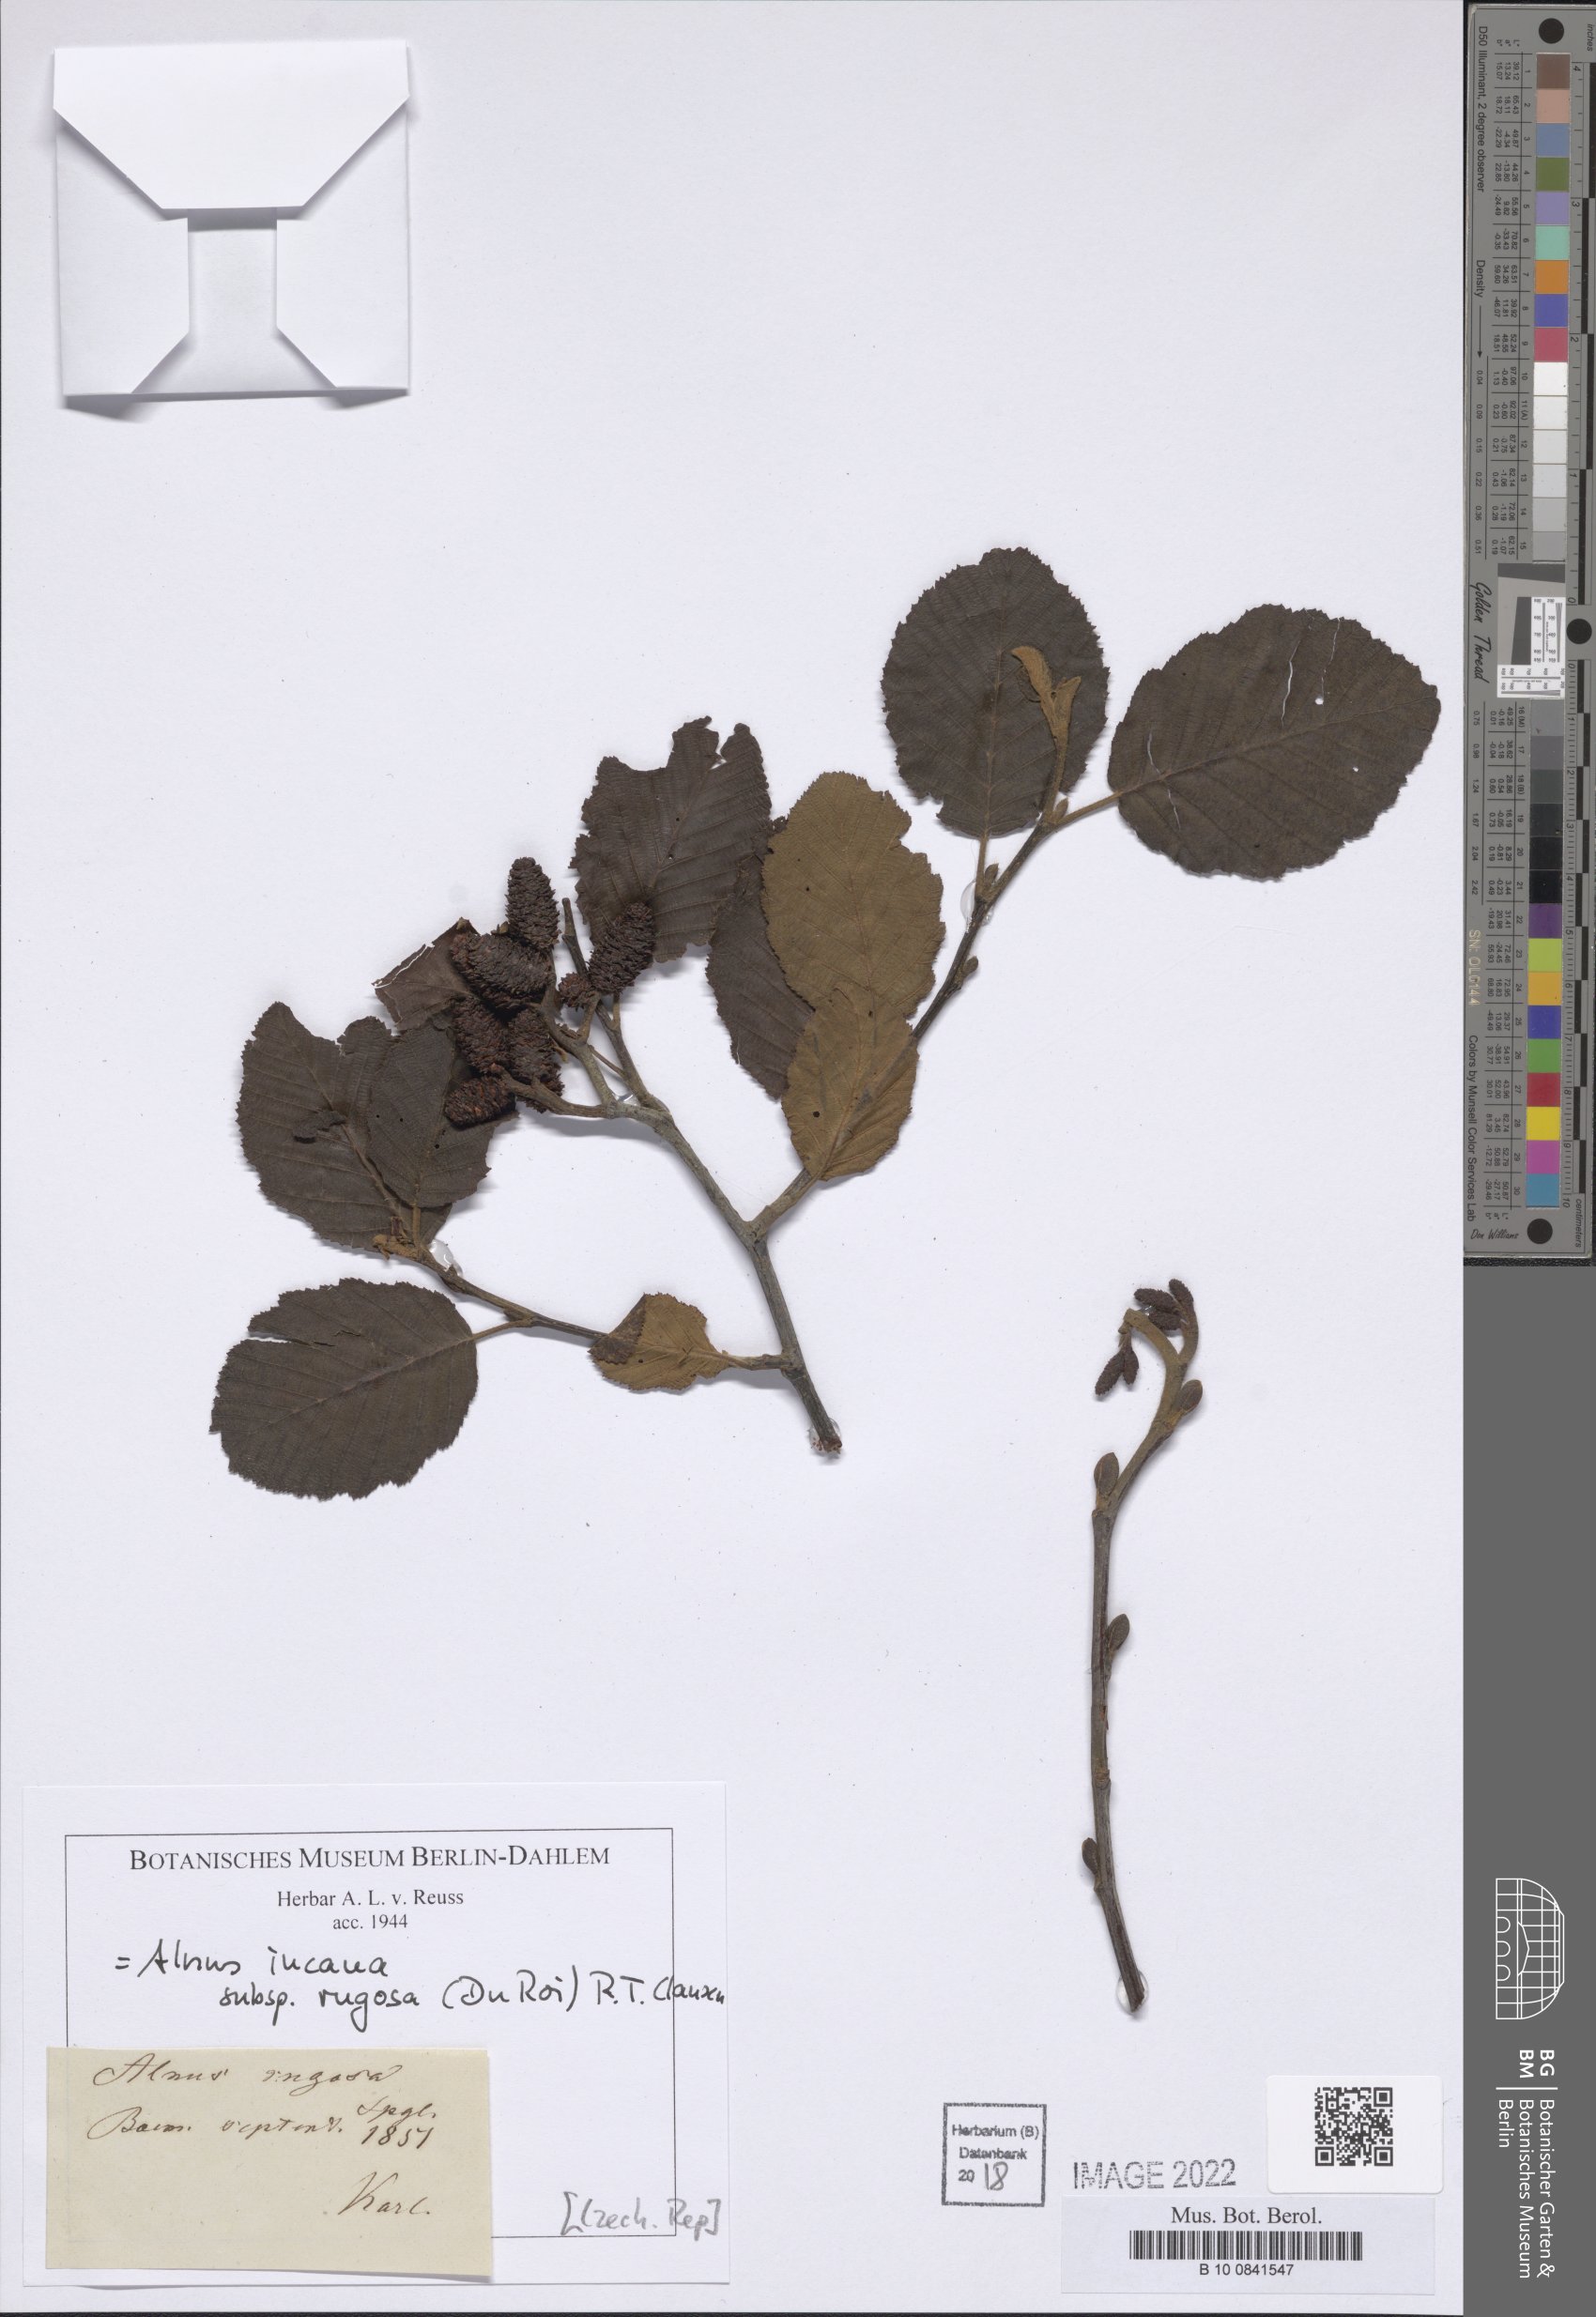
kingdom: Plantae
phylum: Tracheophyta
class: Magnoliopsida
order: Fagales
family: Betulaceae
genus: Alnus
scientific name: Alnus incana
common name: Grey alder
